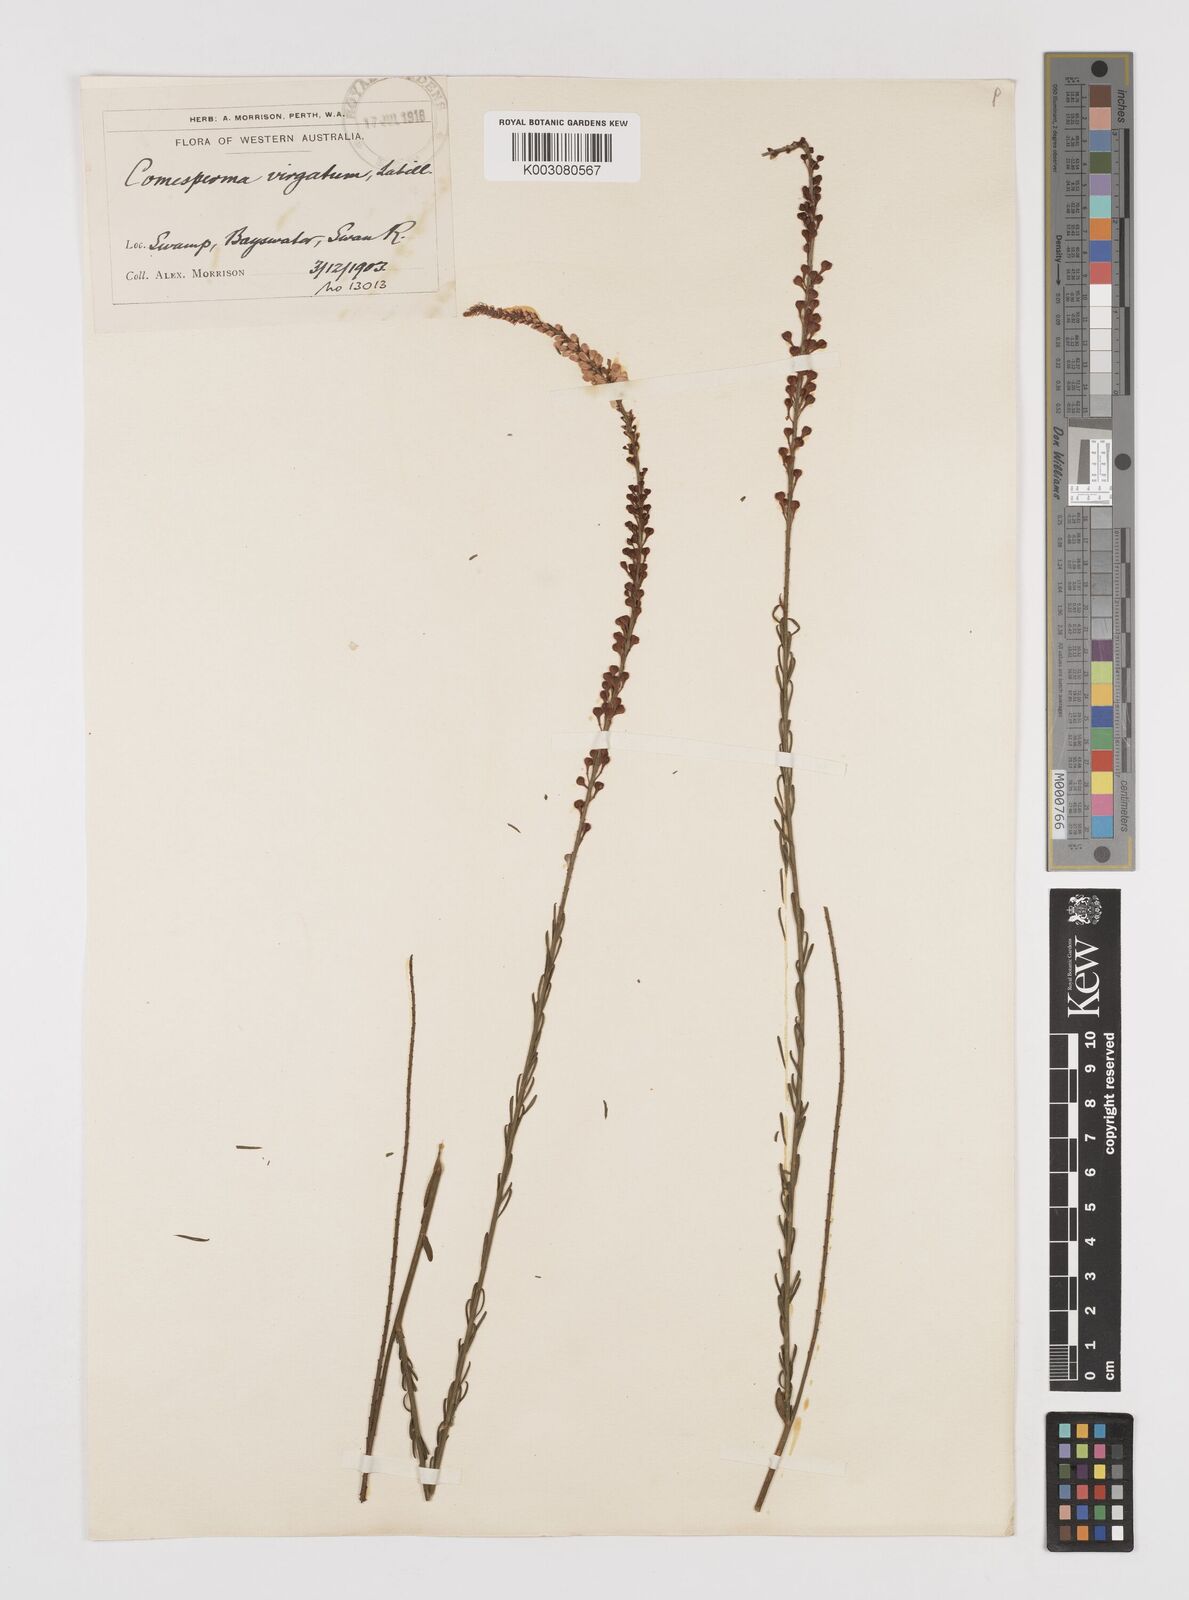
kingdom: Plantae
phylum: Tracheophyta
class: Magnoliopsida
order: Fabales
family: Polygalaceae
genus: Comesperma
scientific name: Comesperma virgatum
